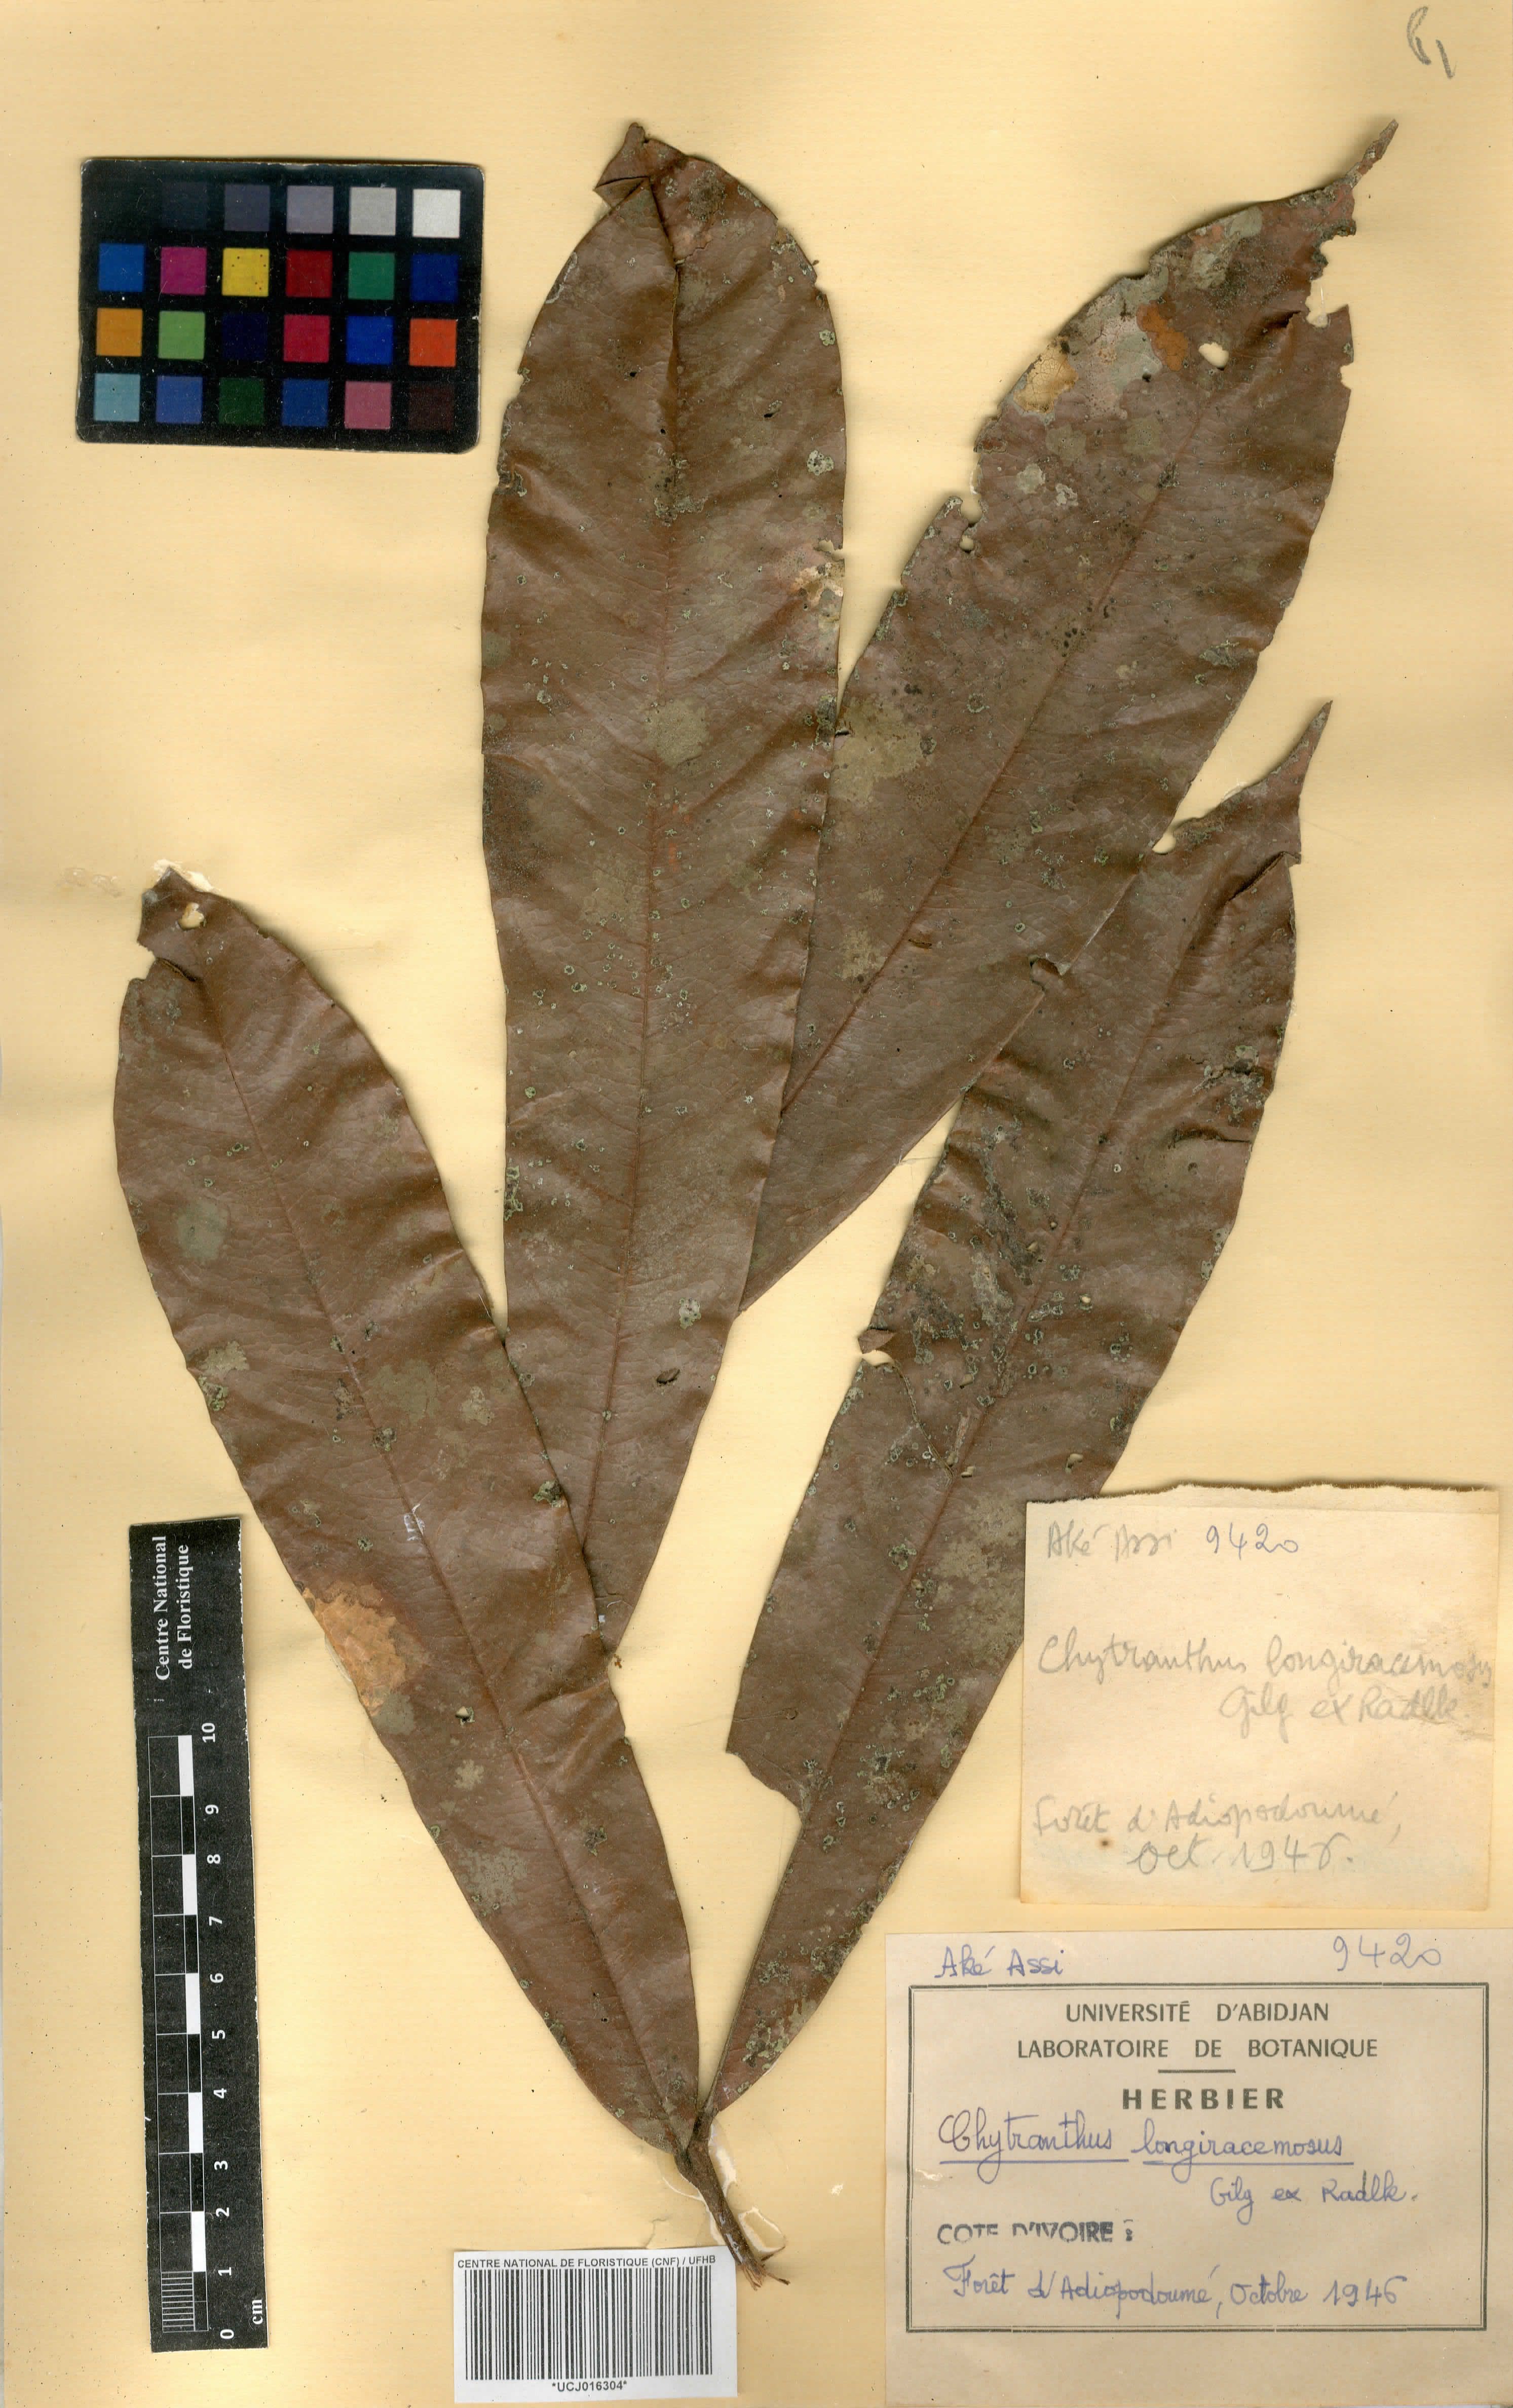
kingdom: Plantae
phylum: Tracheophyta
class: Magnoliopsida
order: Sapindales
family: Sapindaceae
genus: Chytranthus
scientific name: Chytranthus carneus
